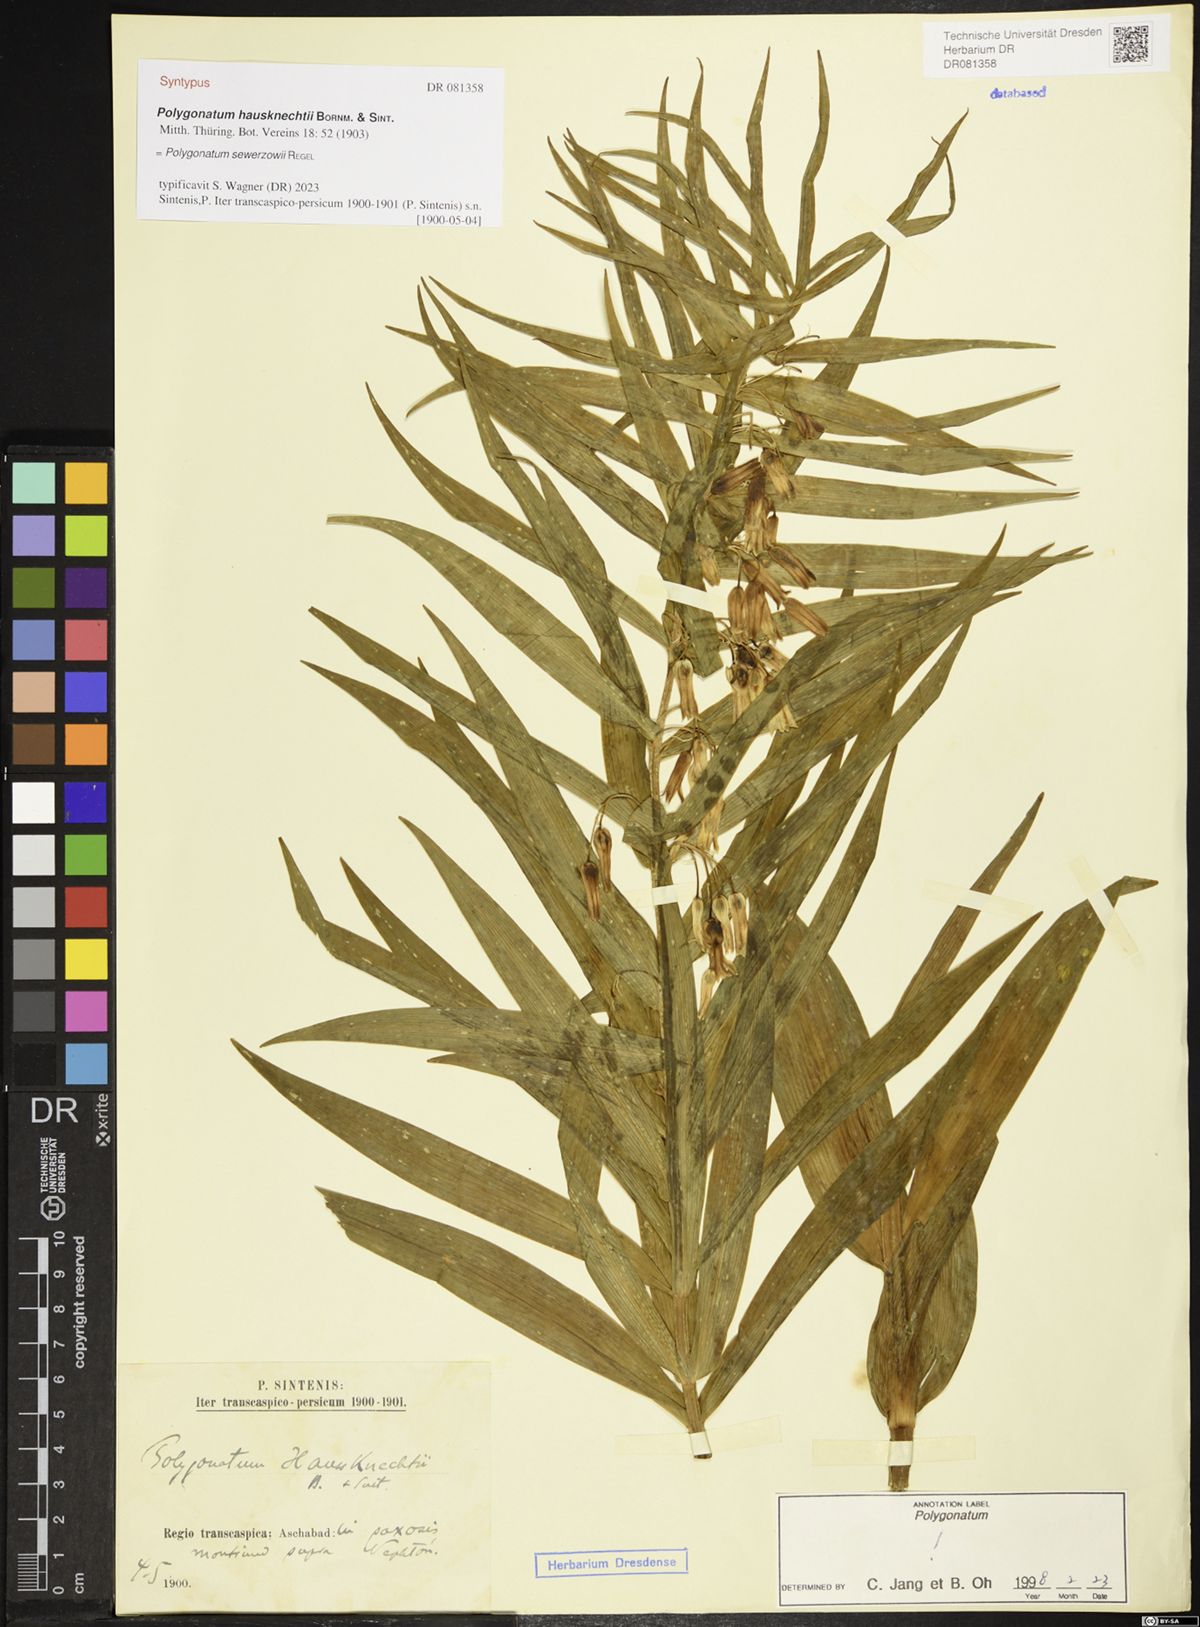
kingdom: Plantae
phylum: Tracheophyta
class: Liliopsida
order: Asparagales
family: Asparagaceae
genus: Polygonatum
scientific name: Polygonatum sewerzowii
